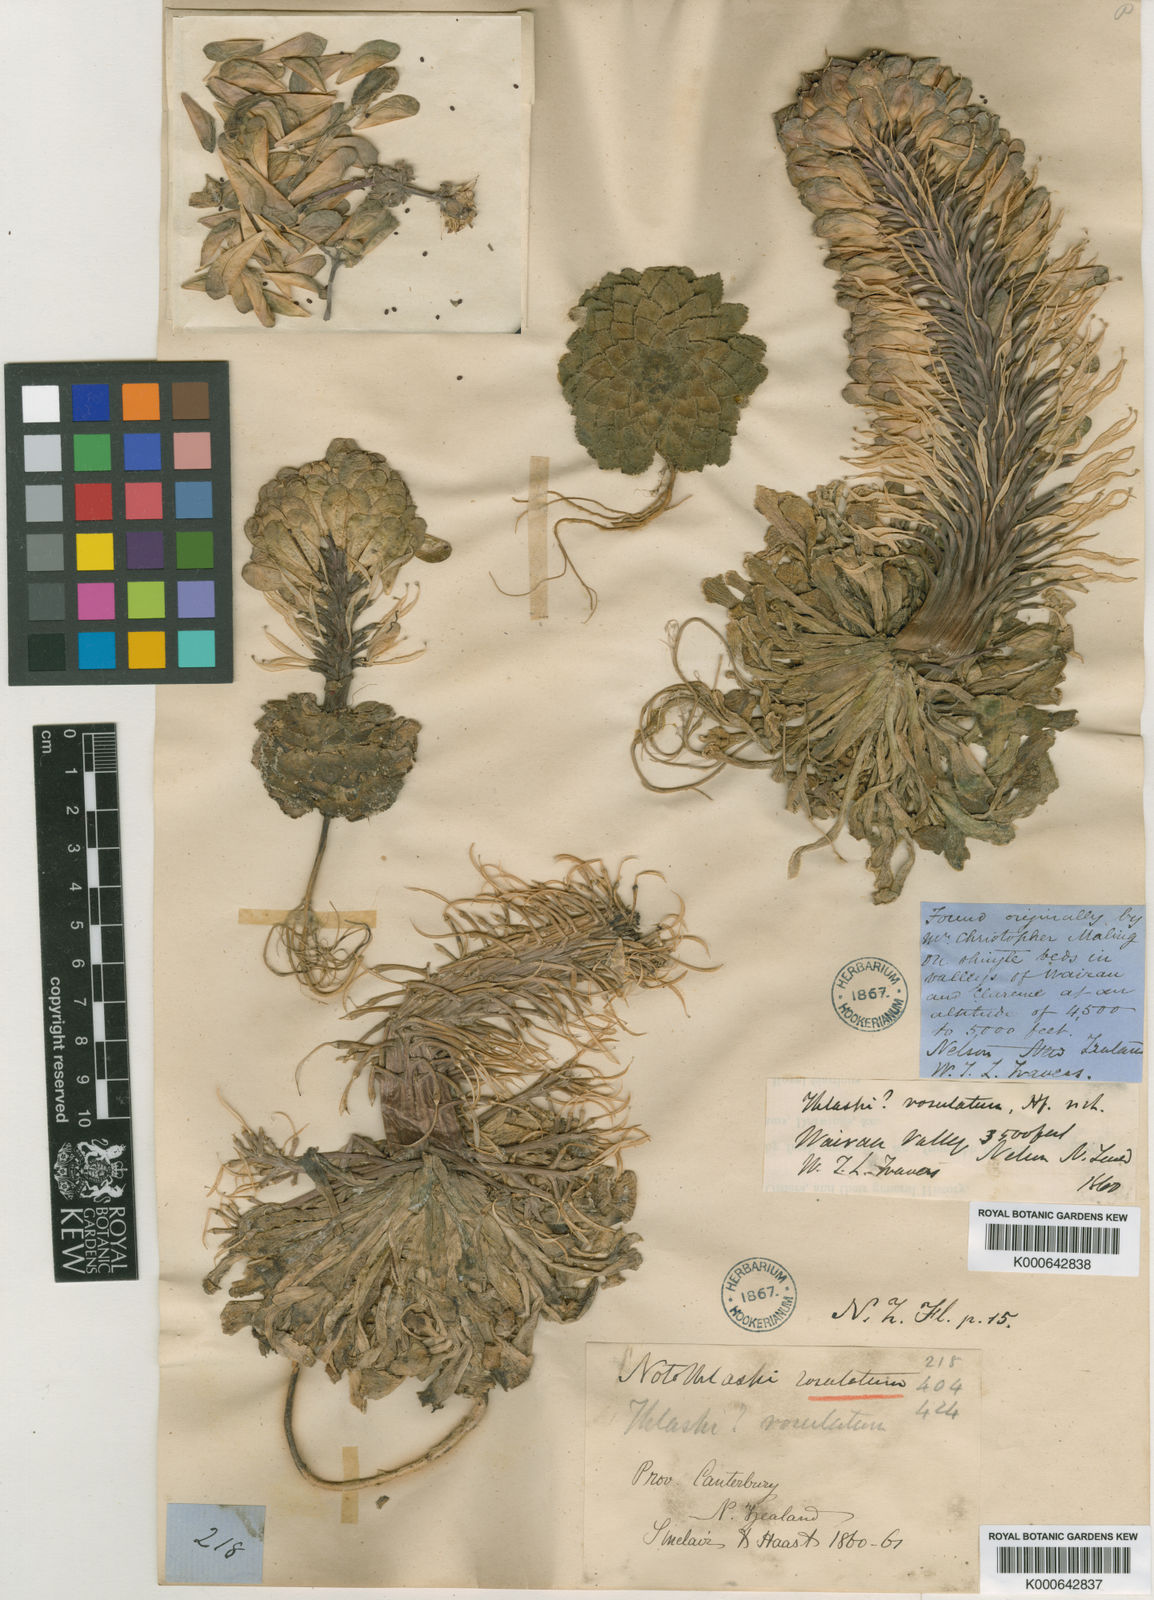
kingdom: Plantae
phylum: Tracheophyta
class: Magnoliopsida
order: Brassicales
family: Brassicaceae
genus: Notothlaspi
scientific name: Notothlaspi rosulatum
